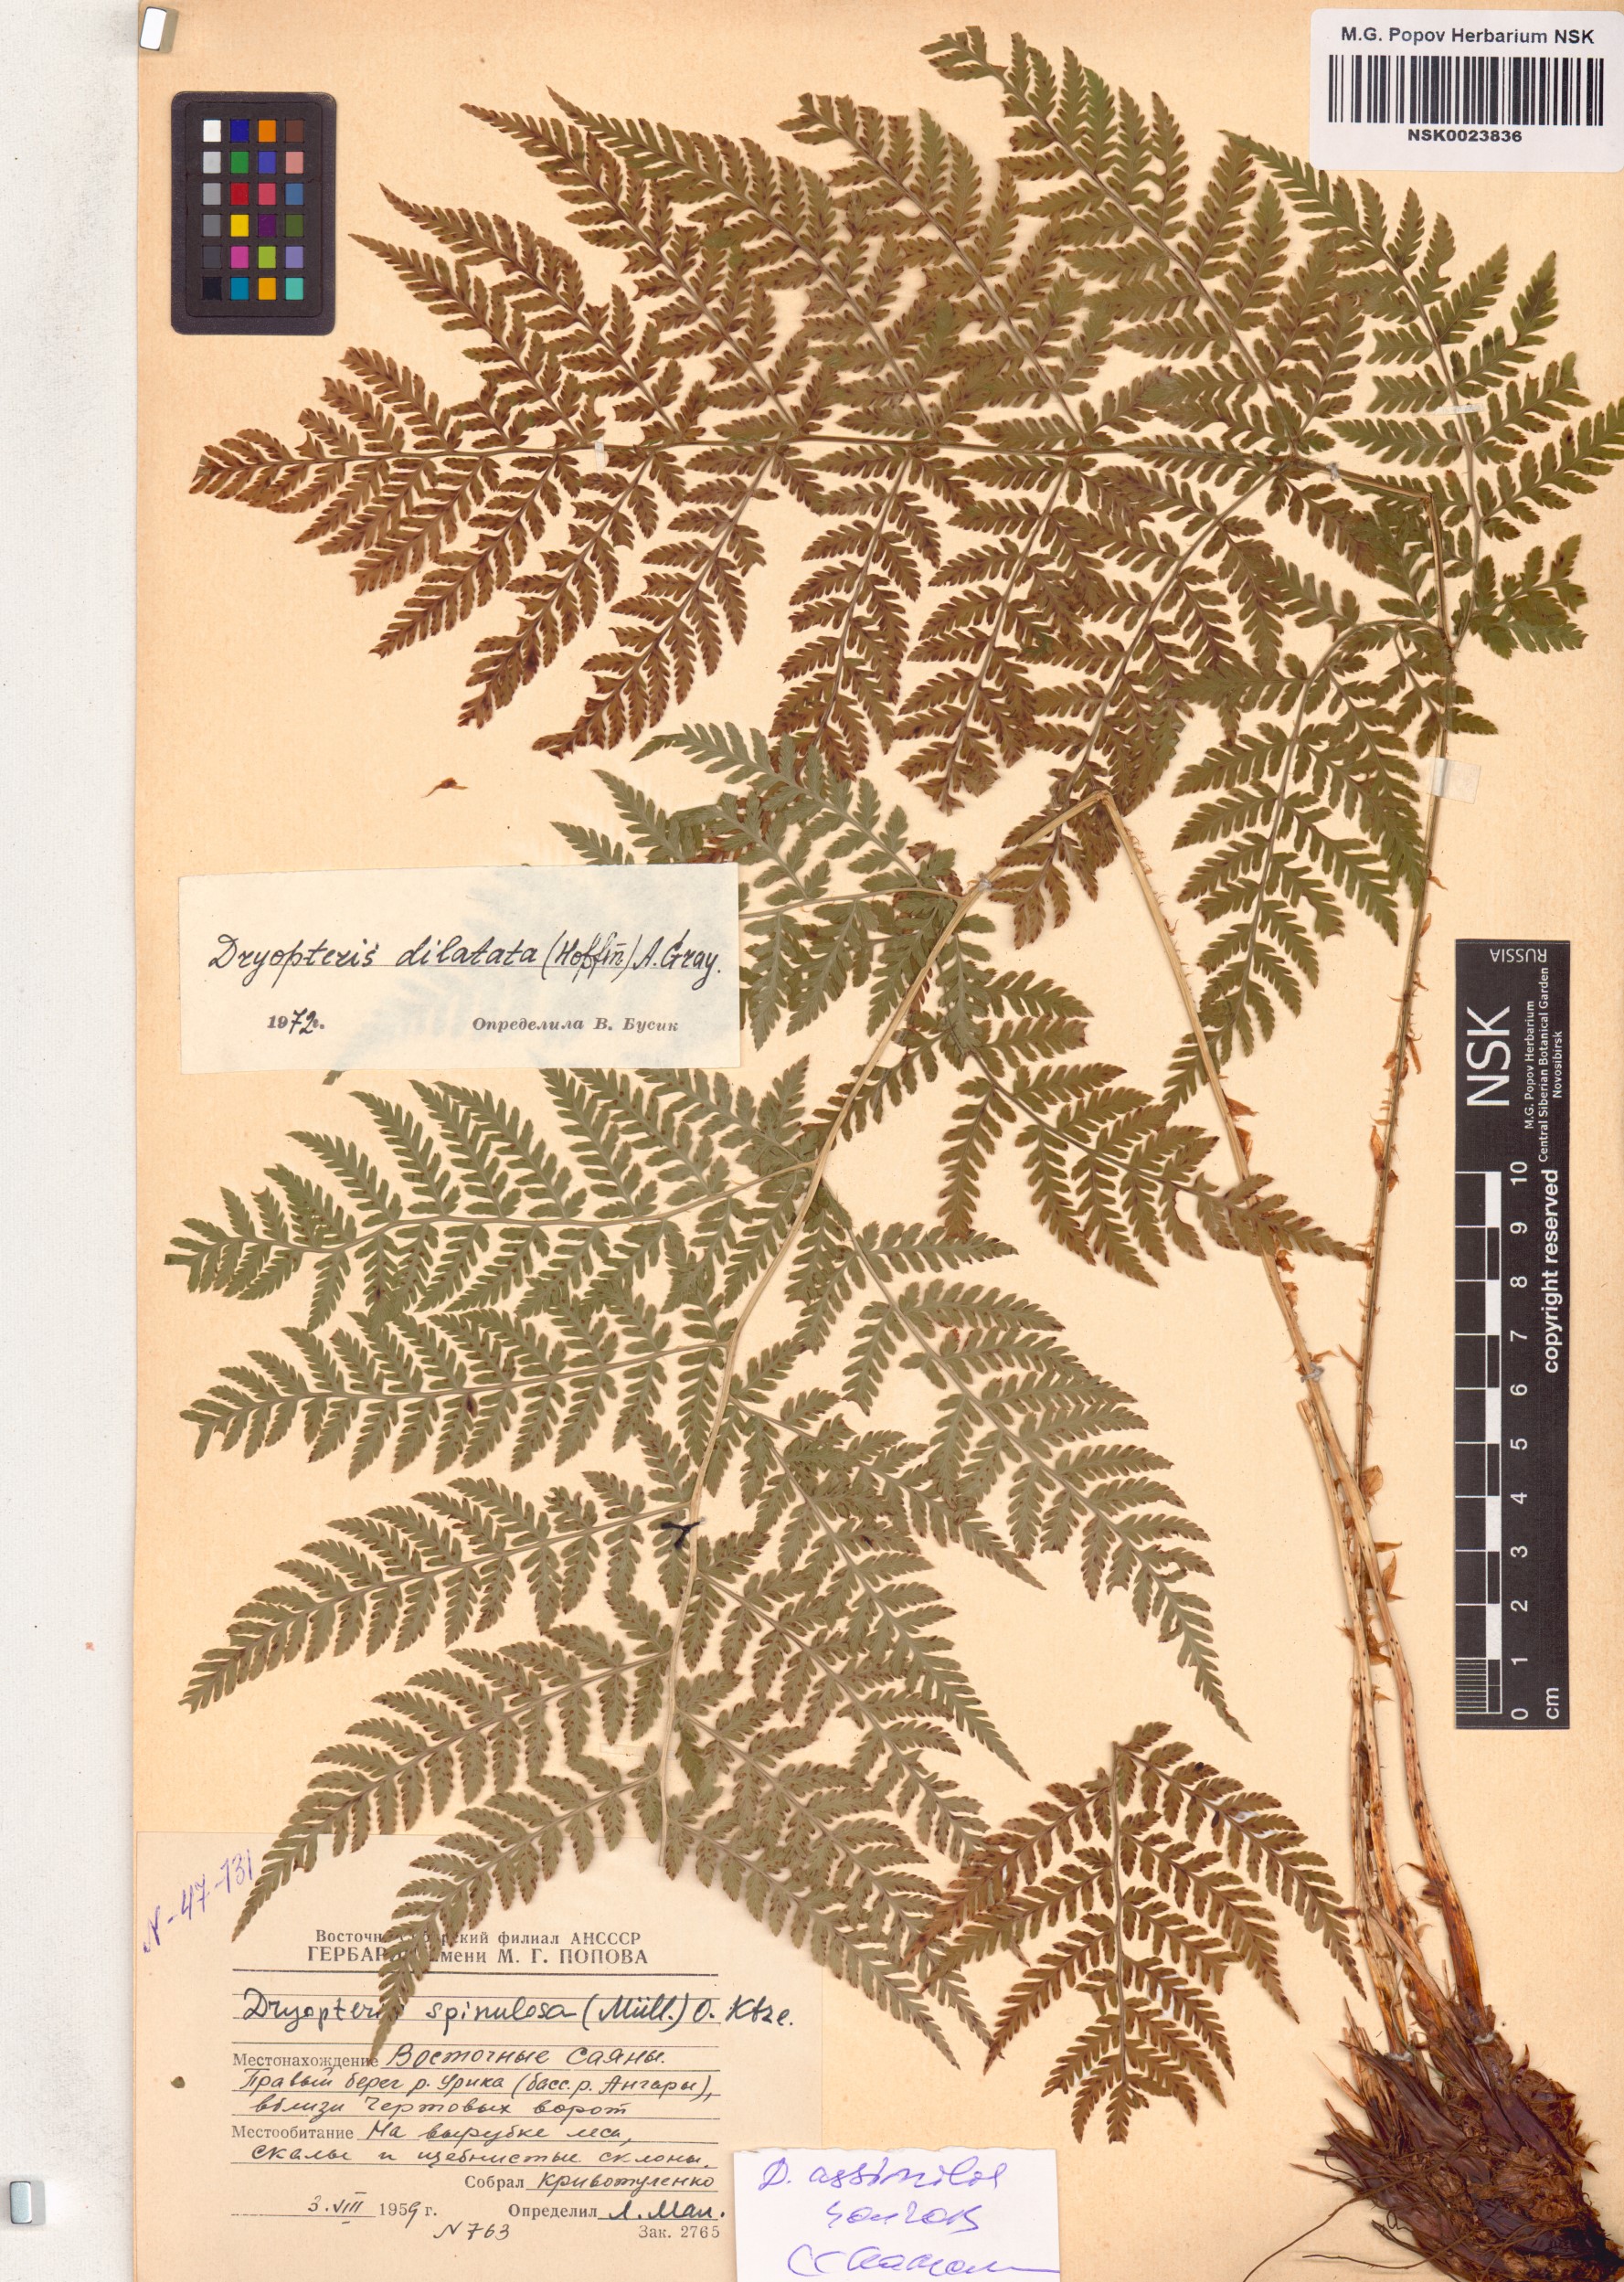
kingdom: Plantae
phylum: Tracheophyta
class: Polypodiopsida
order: Polypodiales
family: Dryopteridaceae
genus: Dryopteris
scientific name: Dryopteris expansa
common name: Northern buckler fern
